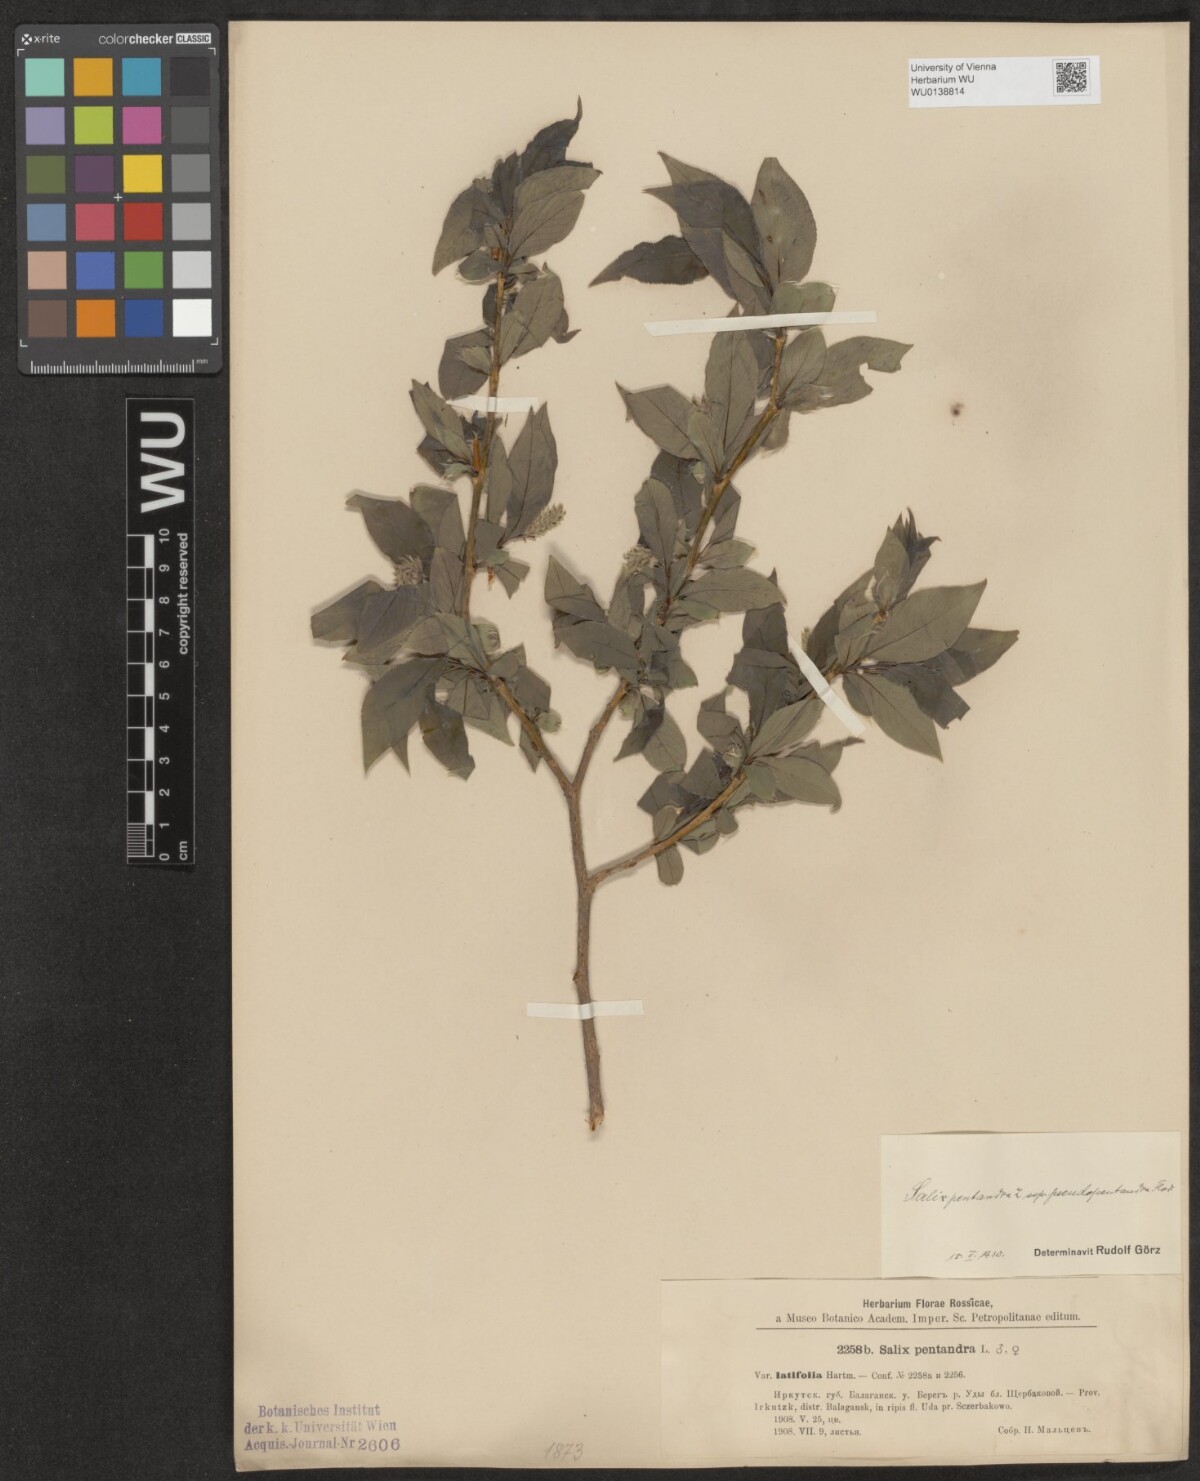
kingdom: Plantae
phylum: Tracheophyta
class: Magnoliopsida
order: Malpighiales
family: Salicaceae
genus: Salix
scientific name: Salix pentandra
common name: Bay willow
